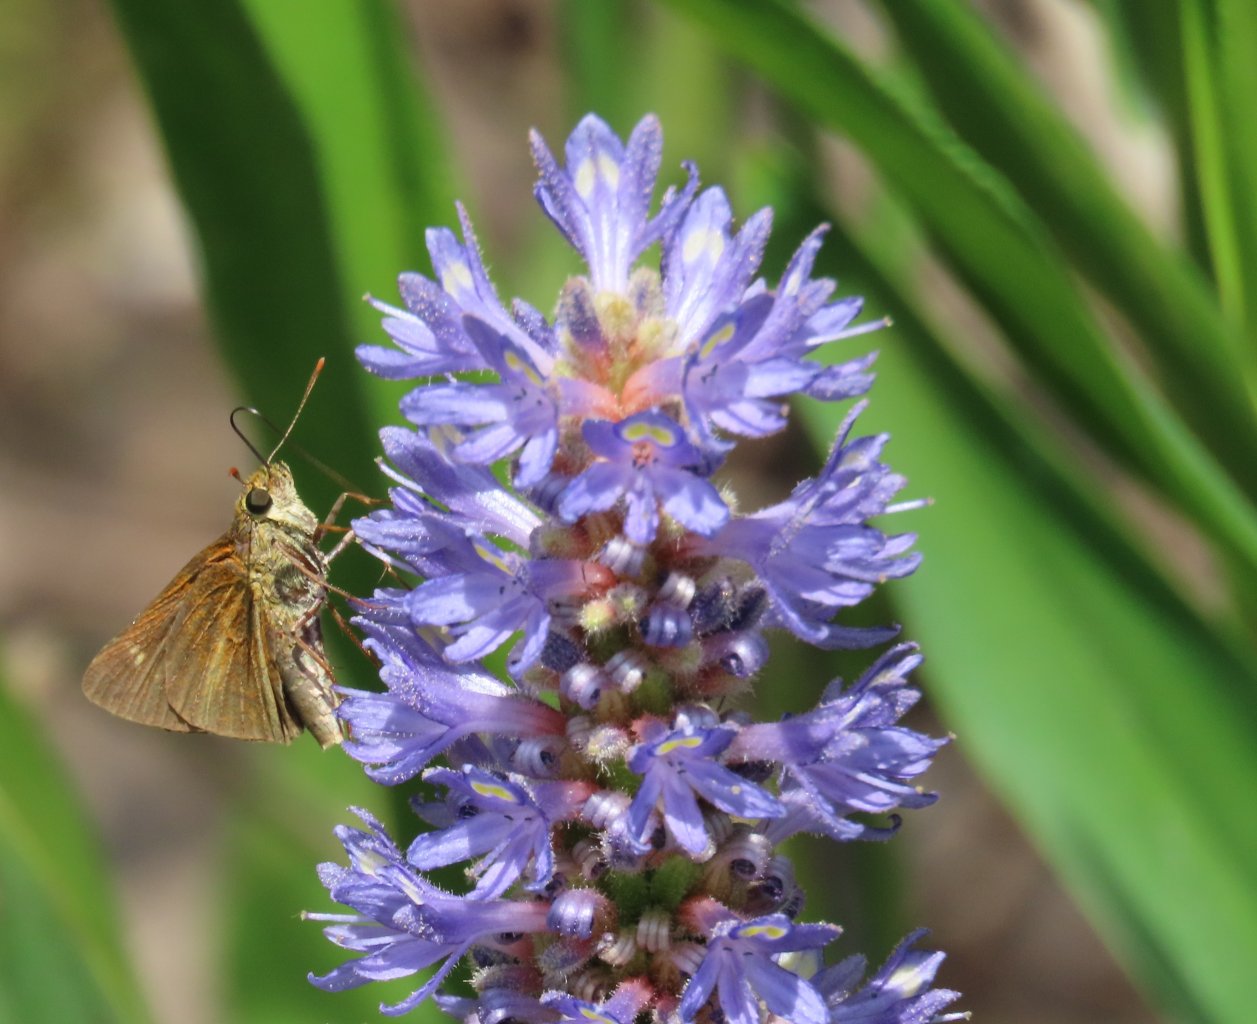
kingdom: Animalia
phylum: Arthropoda
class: Insecta
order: Lepidoptera
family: Hesperiidae
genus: Euphyes
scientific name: Euphyes dion
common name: Dion Skipper
